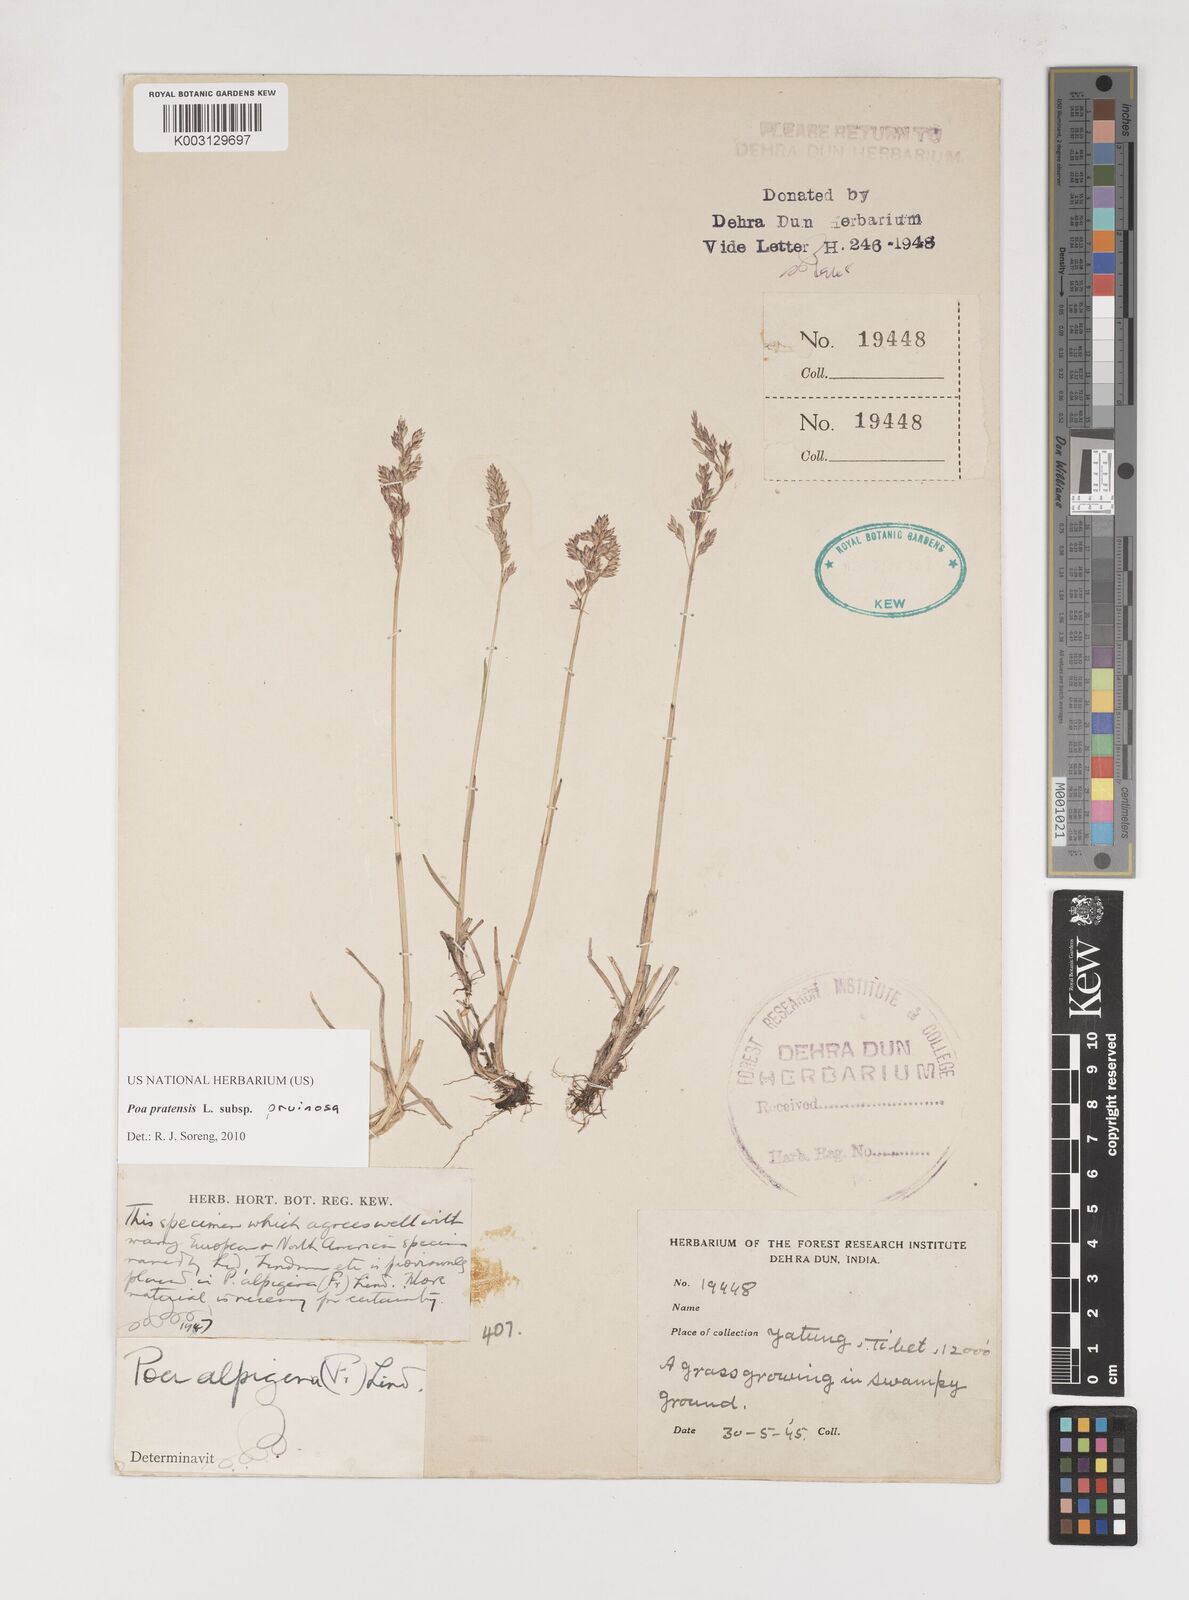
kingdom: Plantae
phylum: Tracheophyta
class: Liliopsida
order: Poales
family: Poaceae
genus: Poa
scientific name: Poa tianschanica
